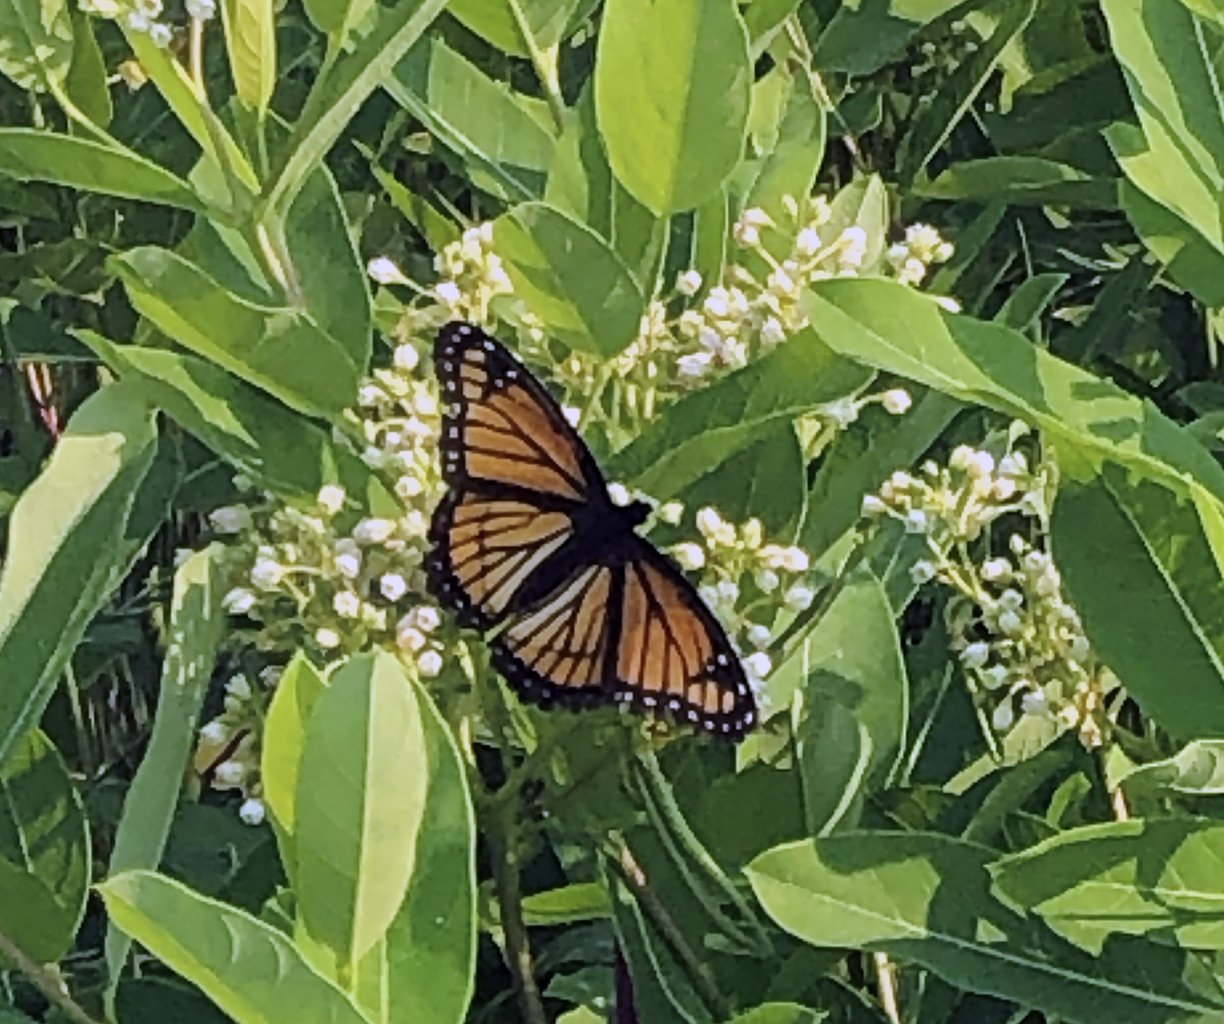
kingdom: Animalia
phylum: Arthropoda
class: Insecta
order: Lepidoptera
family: Nymphalidae
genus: Limenitis
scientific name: Limenitis archippus
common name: Viceroy
